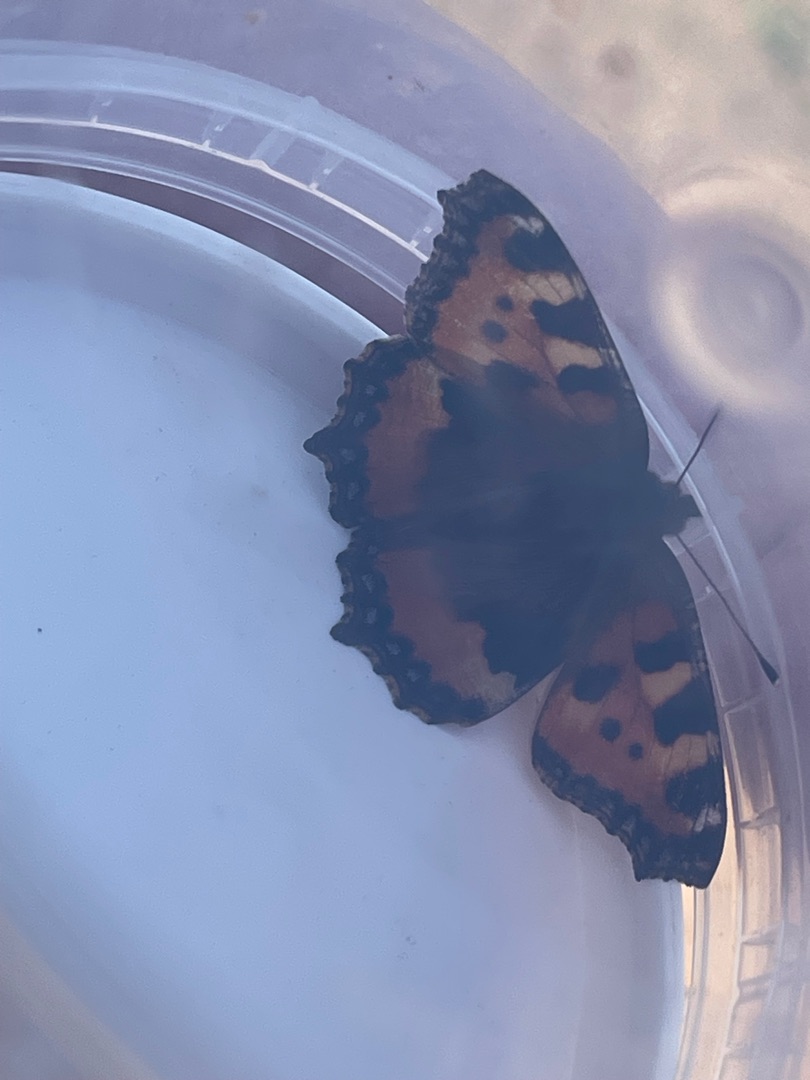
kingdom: Animalia
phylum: Arthropoda
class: Insecta
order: Lepidoptera
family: Nymphalidae
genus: Aglais
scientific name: Aglais urticae
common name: Nældens takvinge
